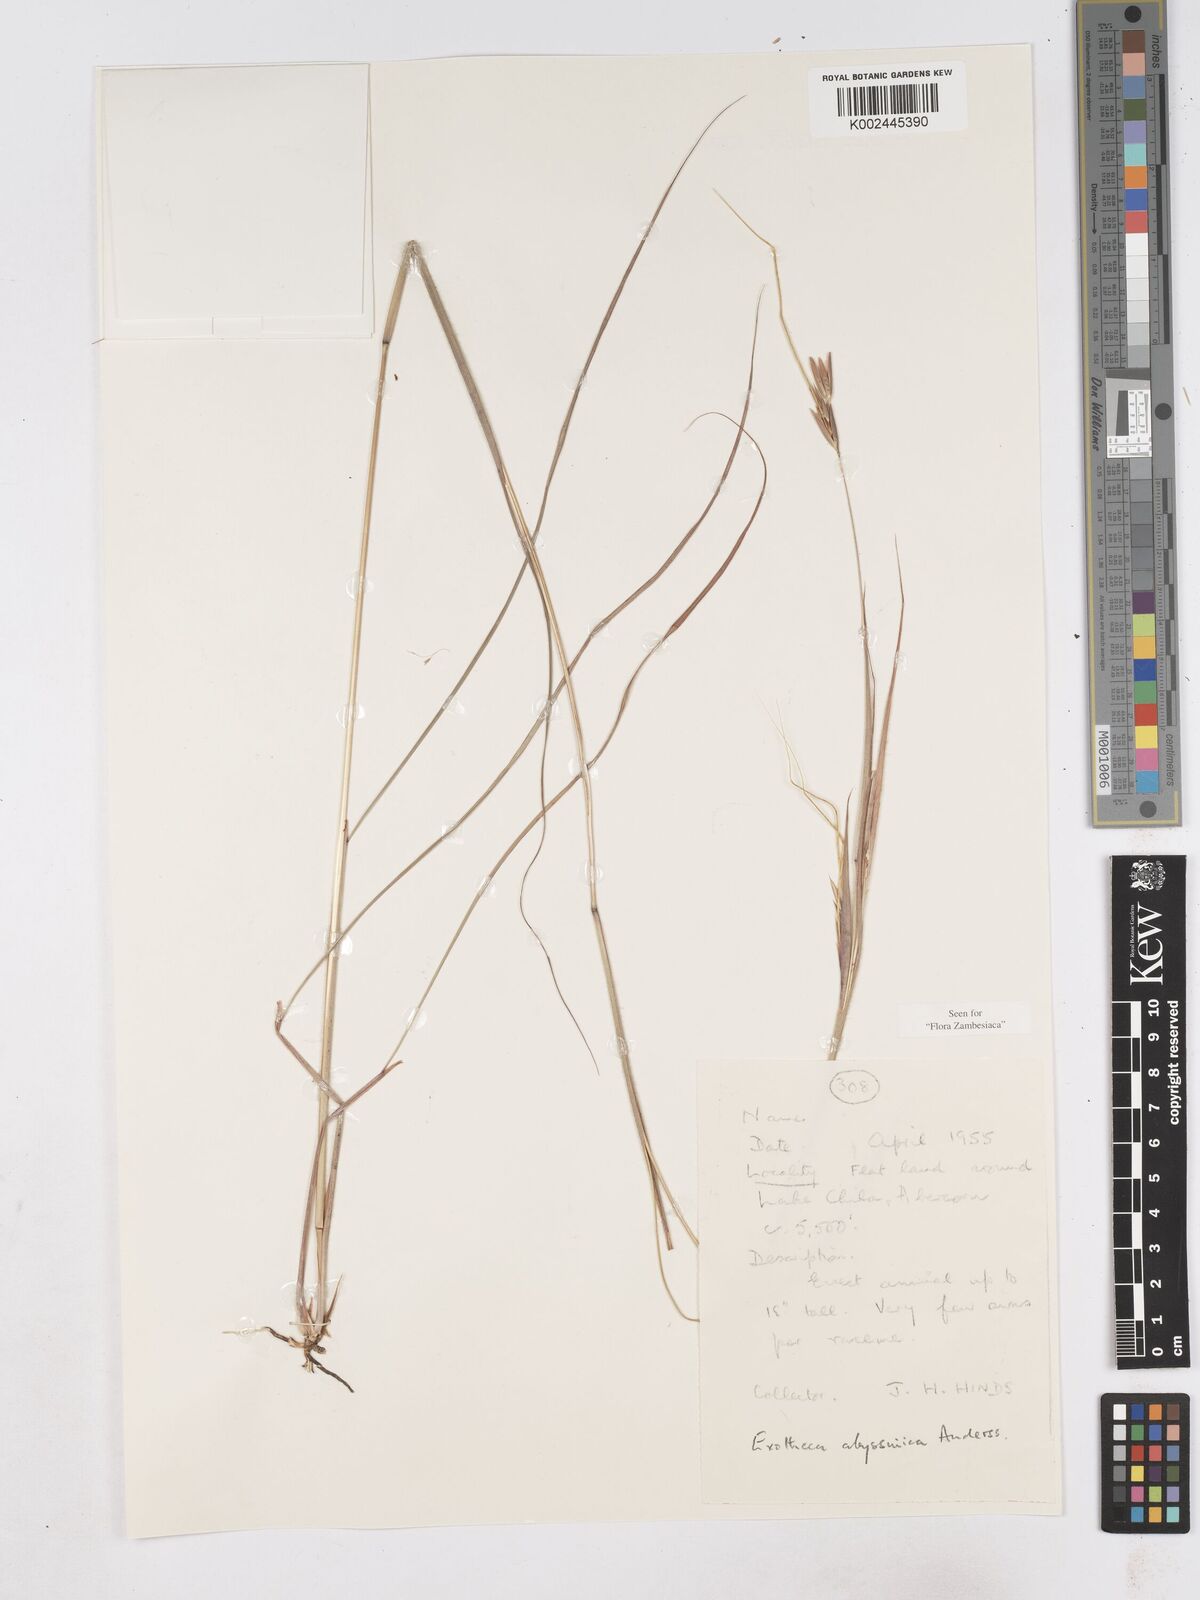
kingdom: Plantae
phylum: Tracheophyta
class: Liliopsida
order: Poales
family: Poaceae
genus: Exotheca
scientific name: Exotheca abyssinica
